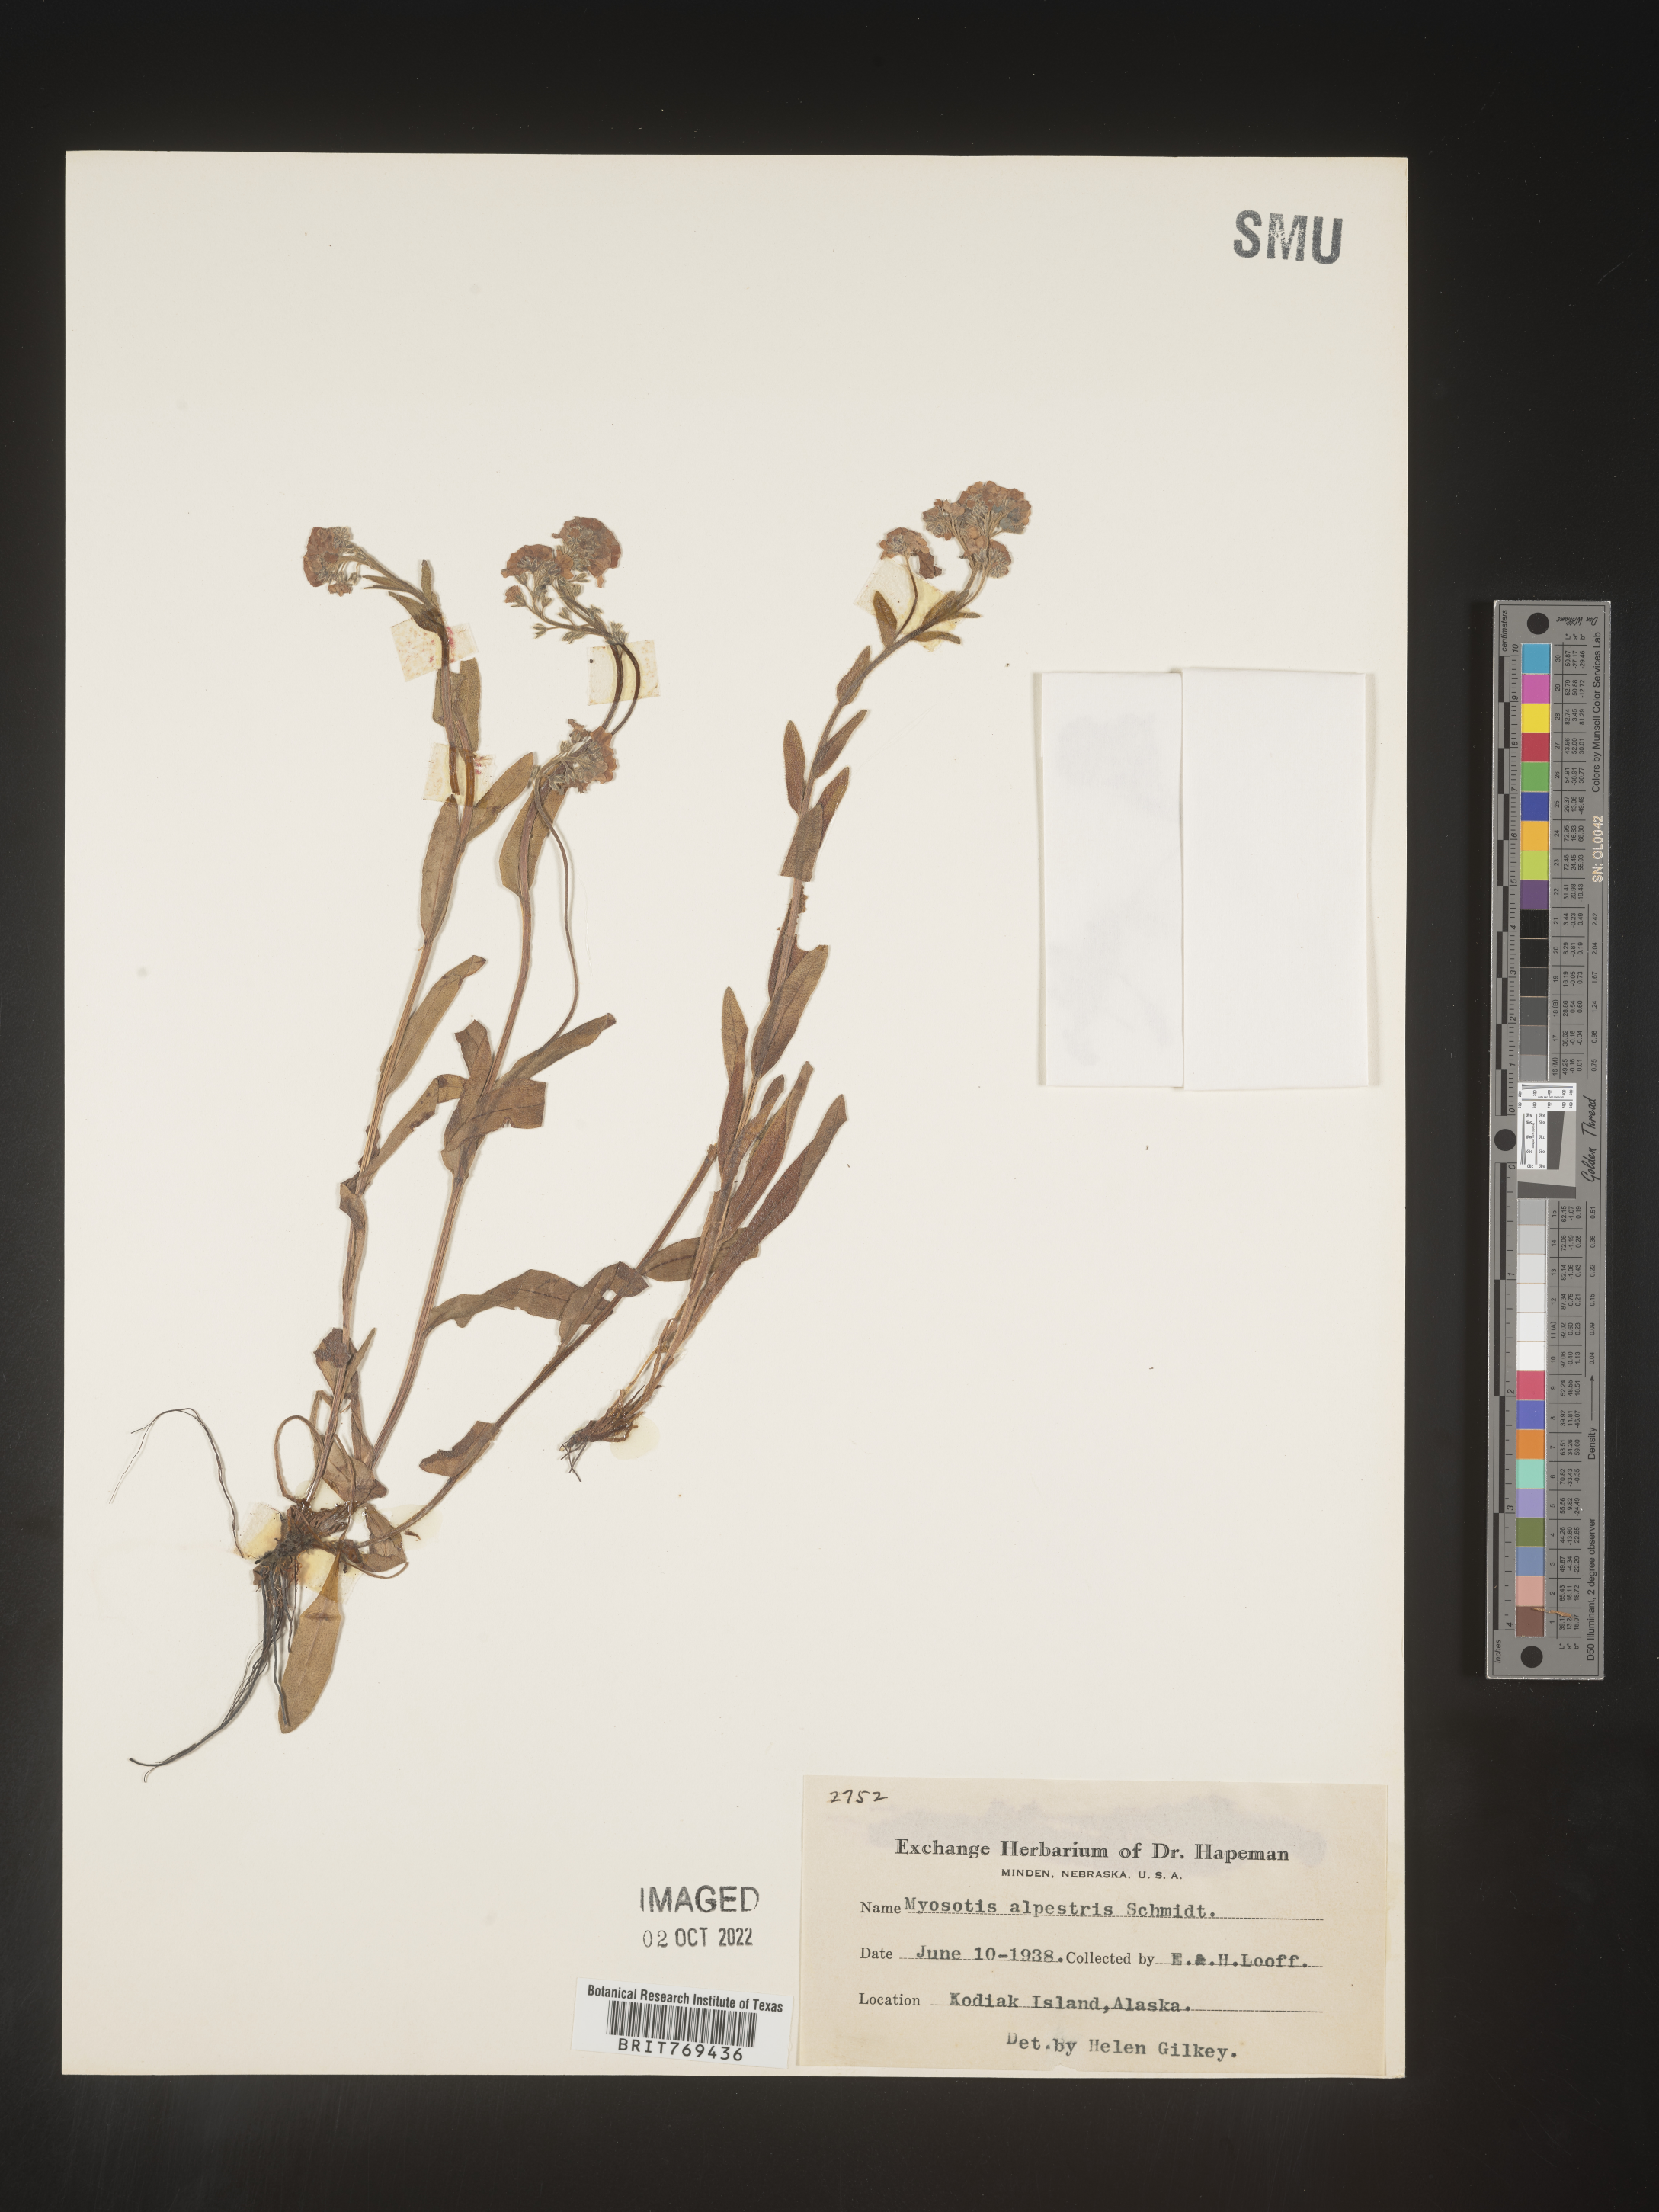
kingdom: Plantae
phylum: Tracheophyta
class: Magnoliopsida
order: Boraginales
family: Boraginaceae
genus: Myosotis
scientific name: Myosotis
